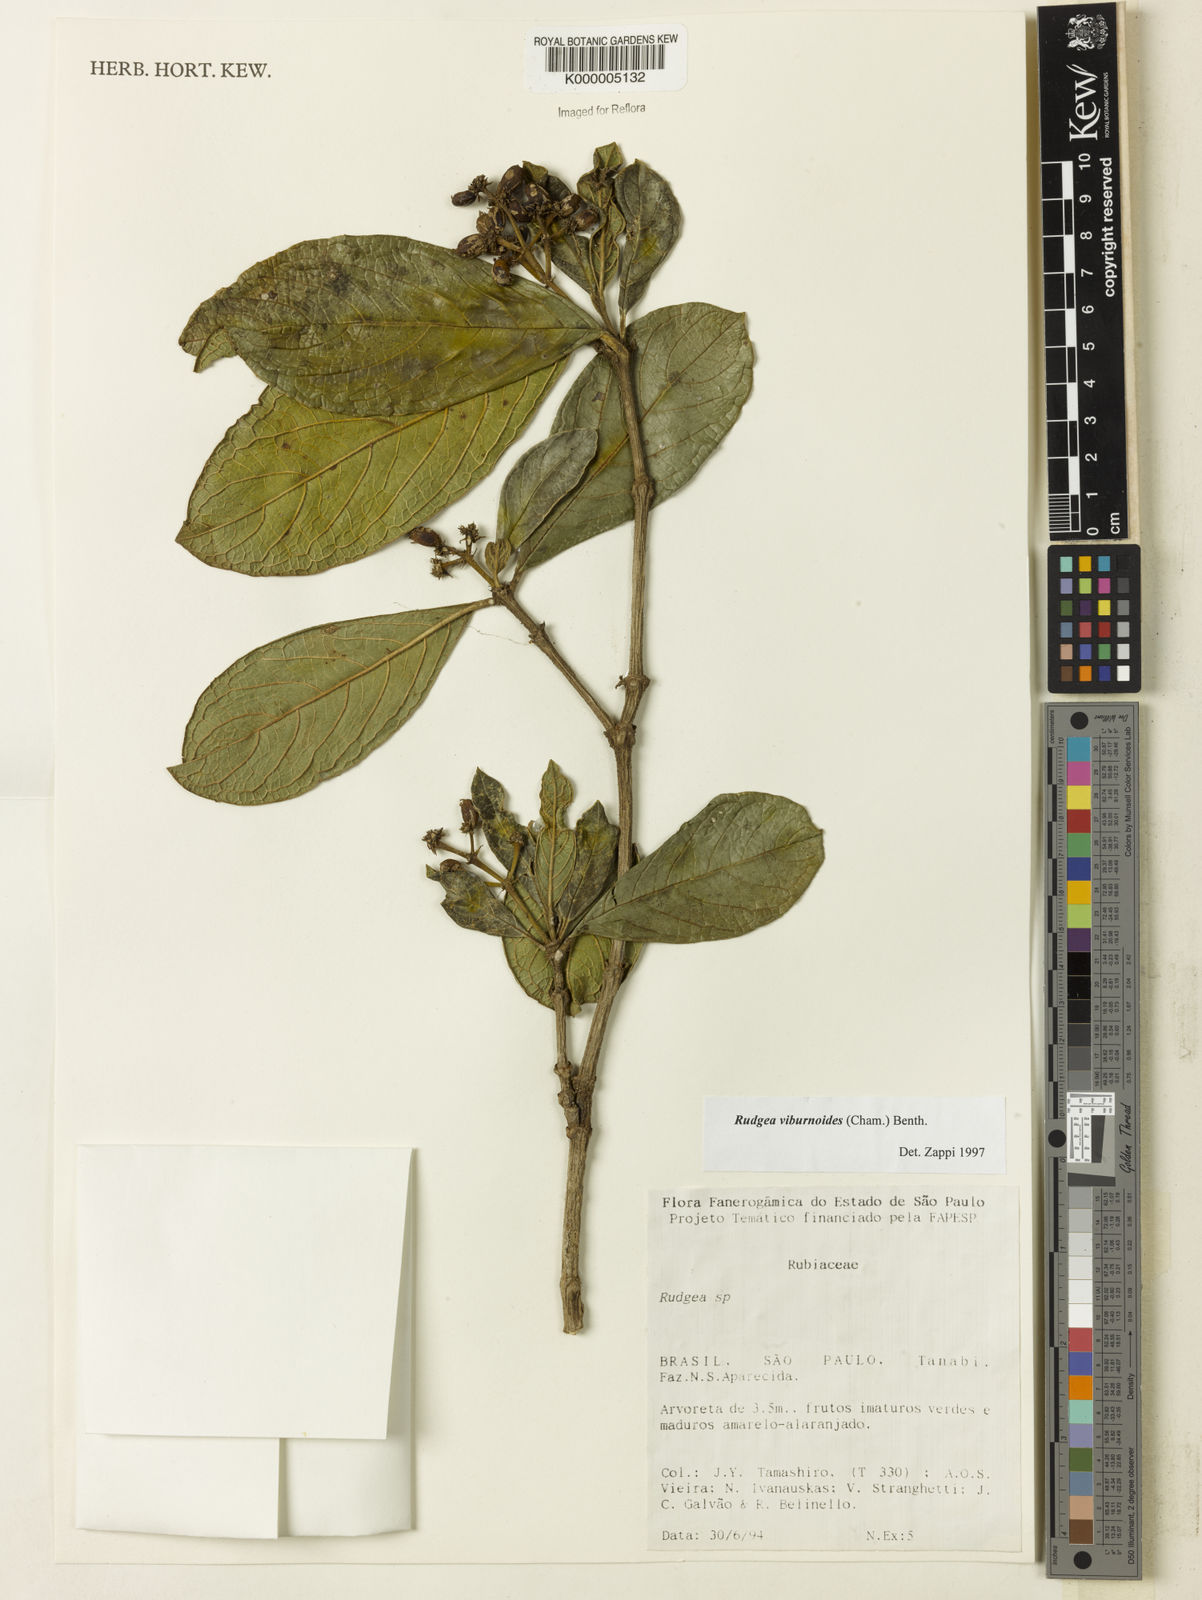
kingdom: Plantae
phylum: Tracheophyta
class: Magnoliopsida
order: Gentianales
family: Rubiaceae
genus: Rudgea
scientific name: Rudgea viburnoides
